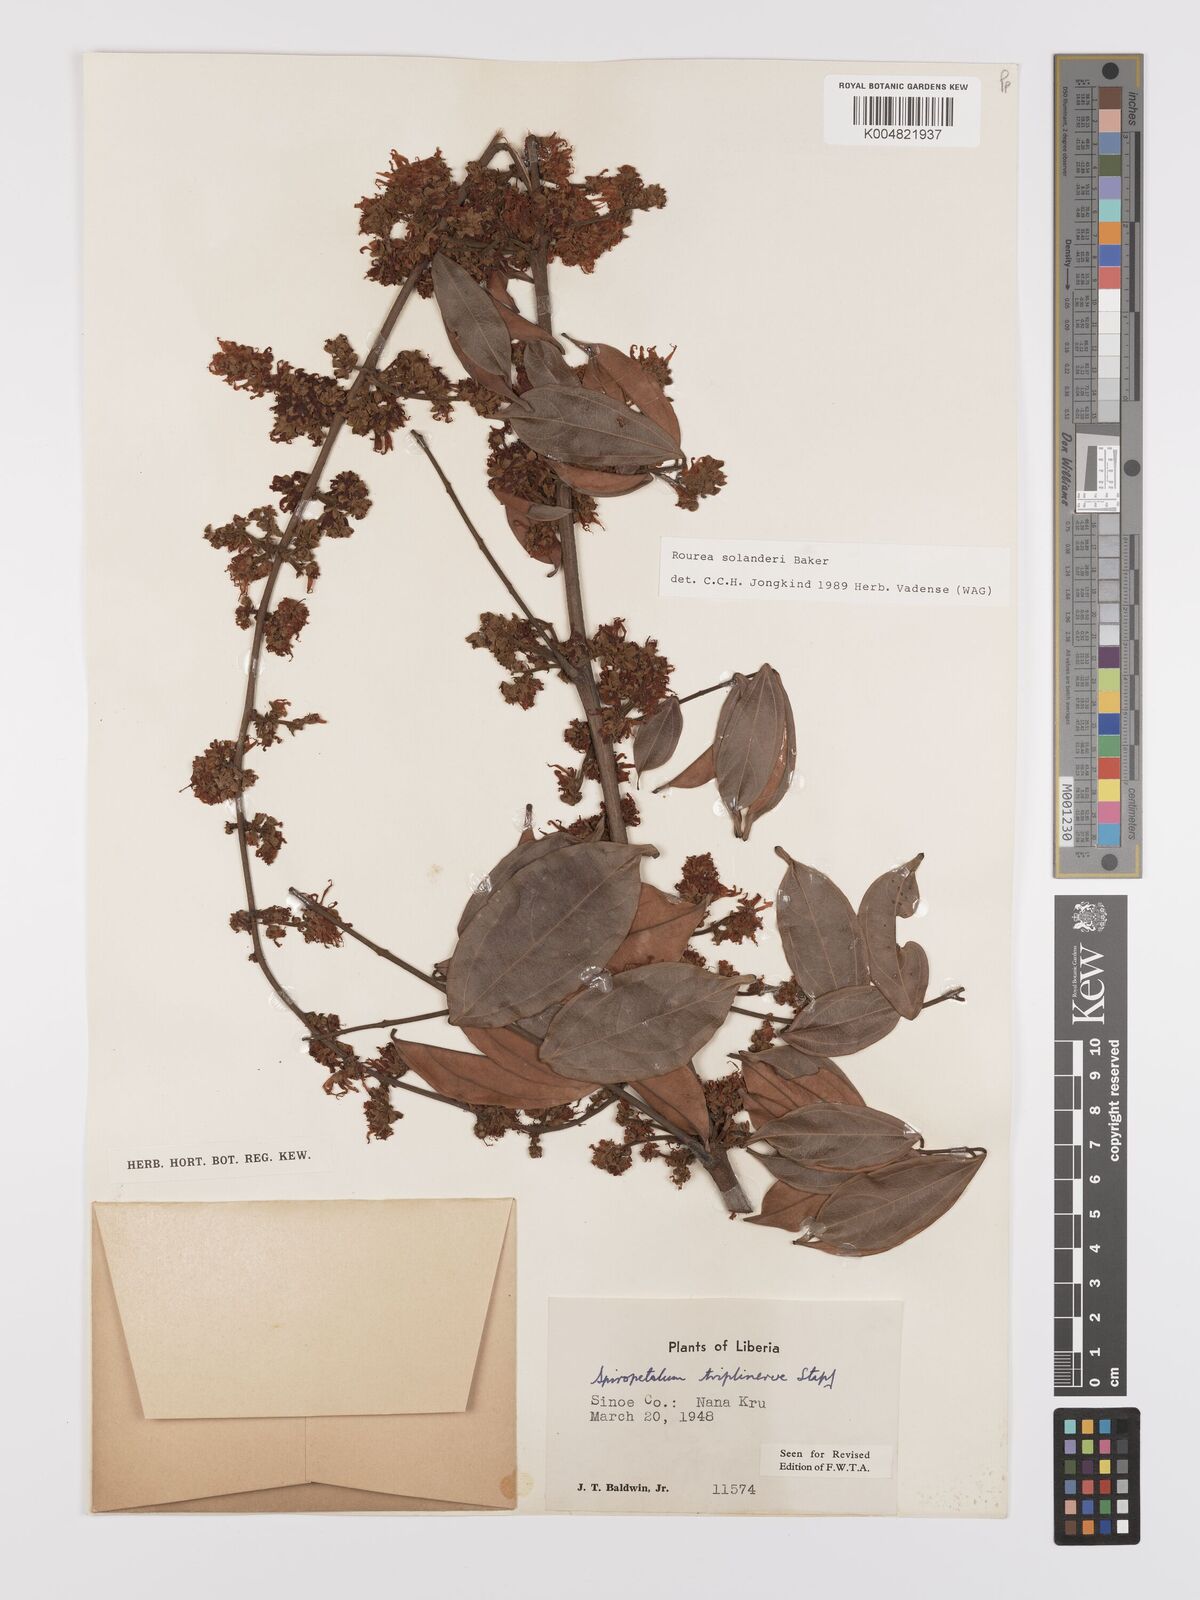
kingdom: Plantae
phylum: Tracheophyta
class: Magnoliopsida
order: Oxalidales
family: Connaraceae
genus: Rourea
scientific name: Rourea solanderi
